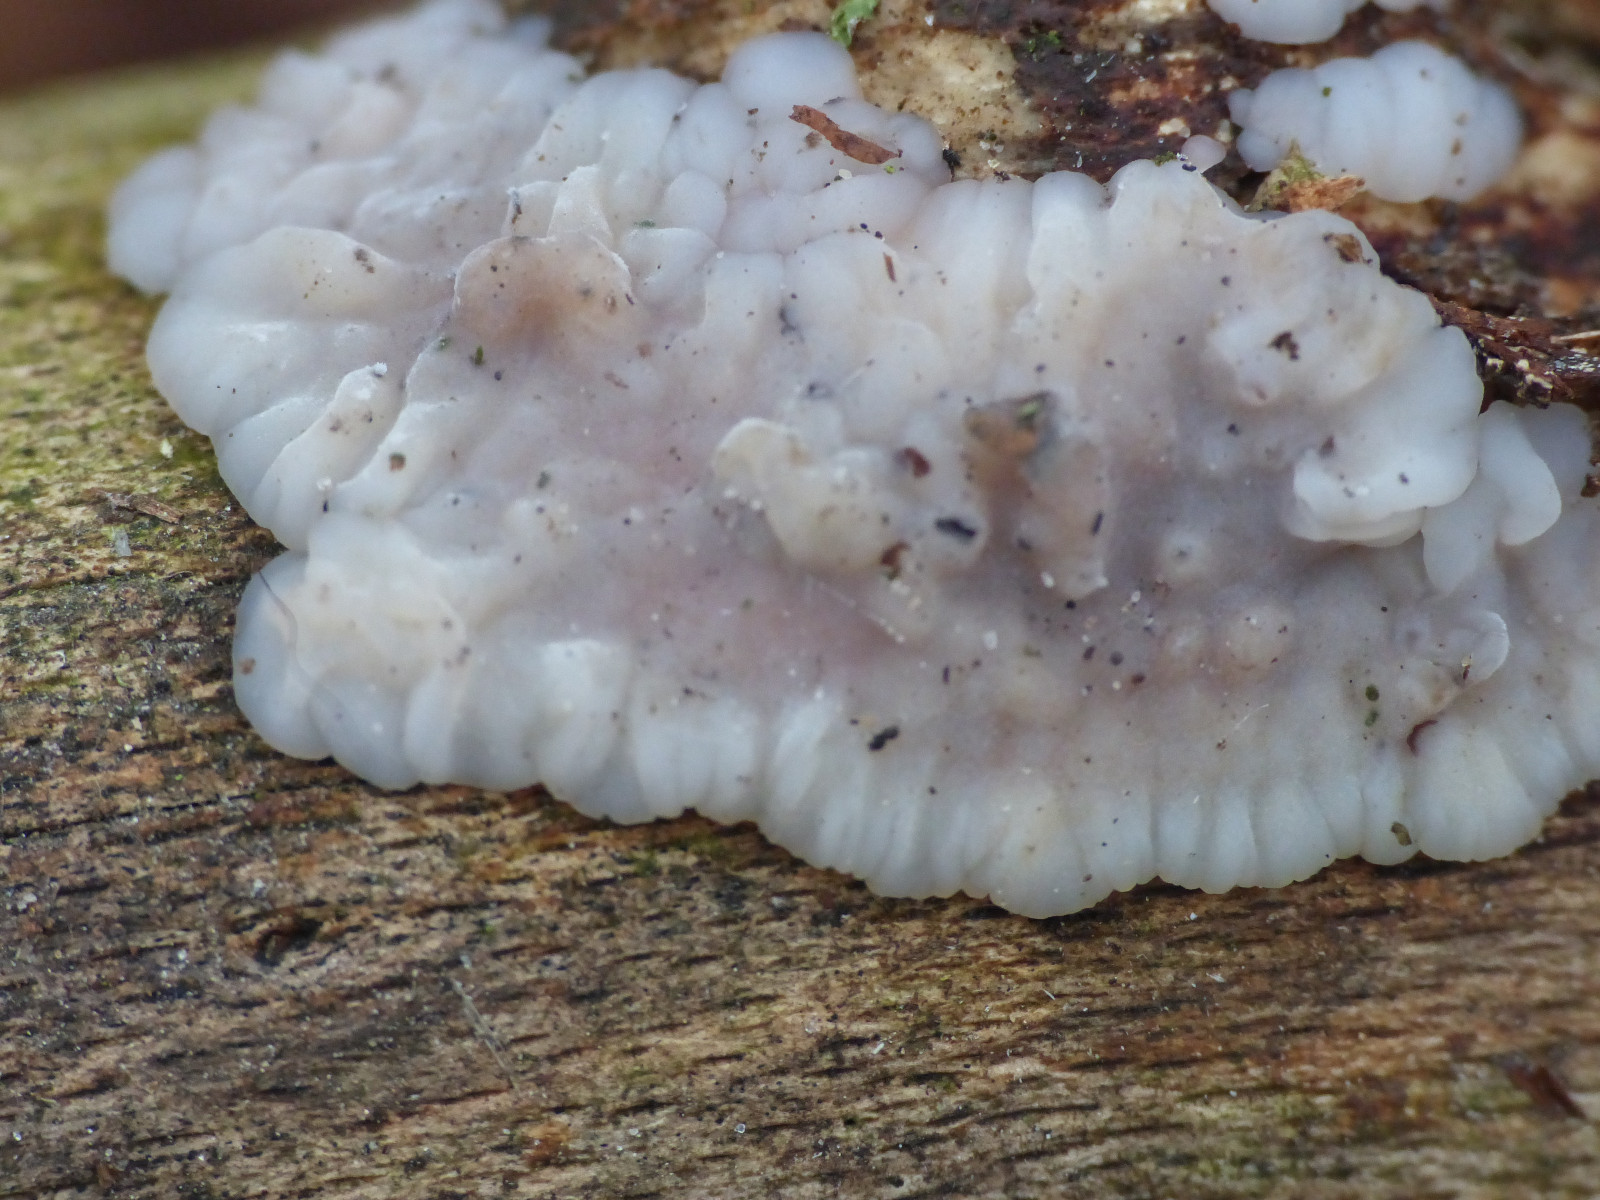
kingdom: Fungi
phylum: Basidiomycota
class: Agaricomycetes
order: Auriculariales
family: Auriculariaceae
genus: Exidia
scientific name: Exidia thuretiana
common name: hvidlig bævretop
